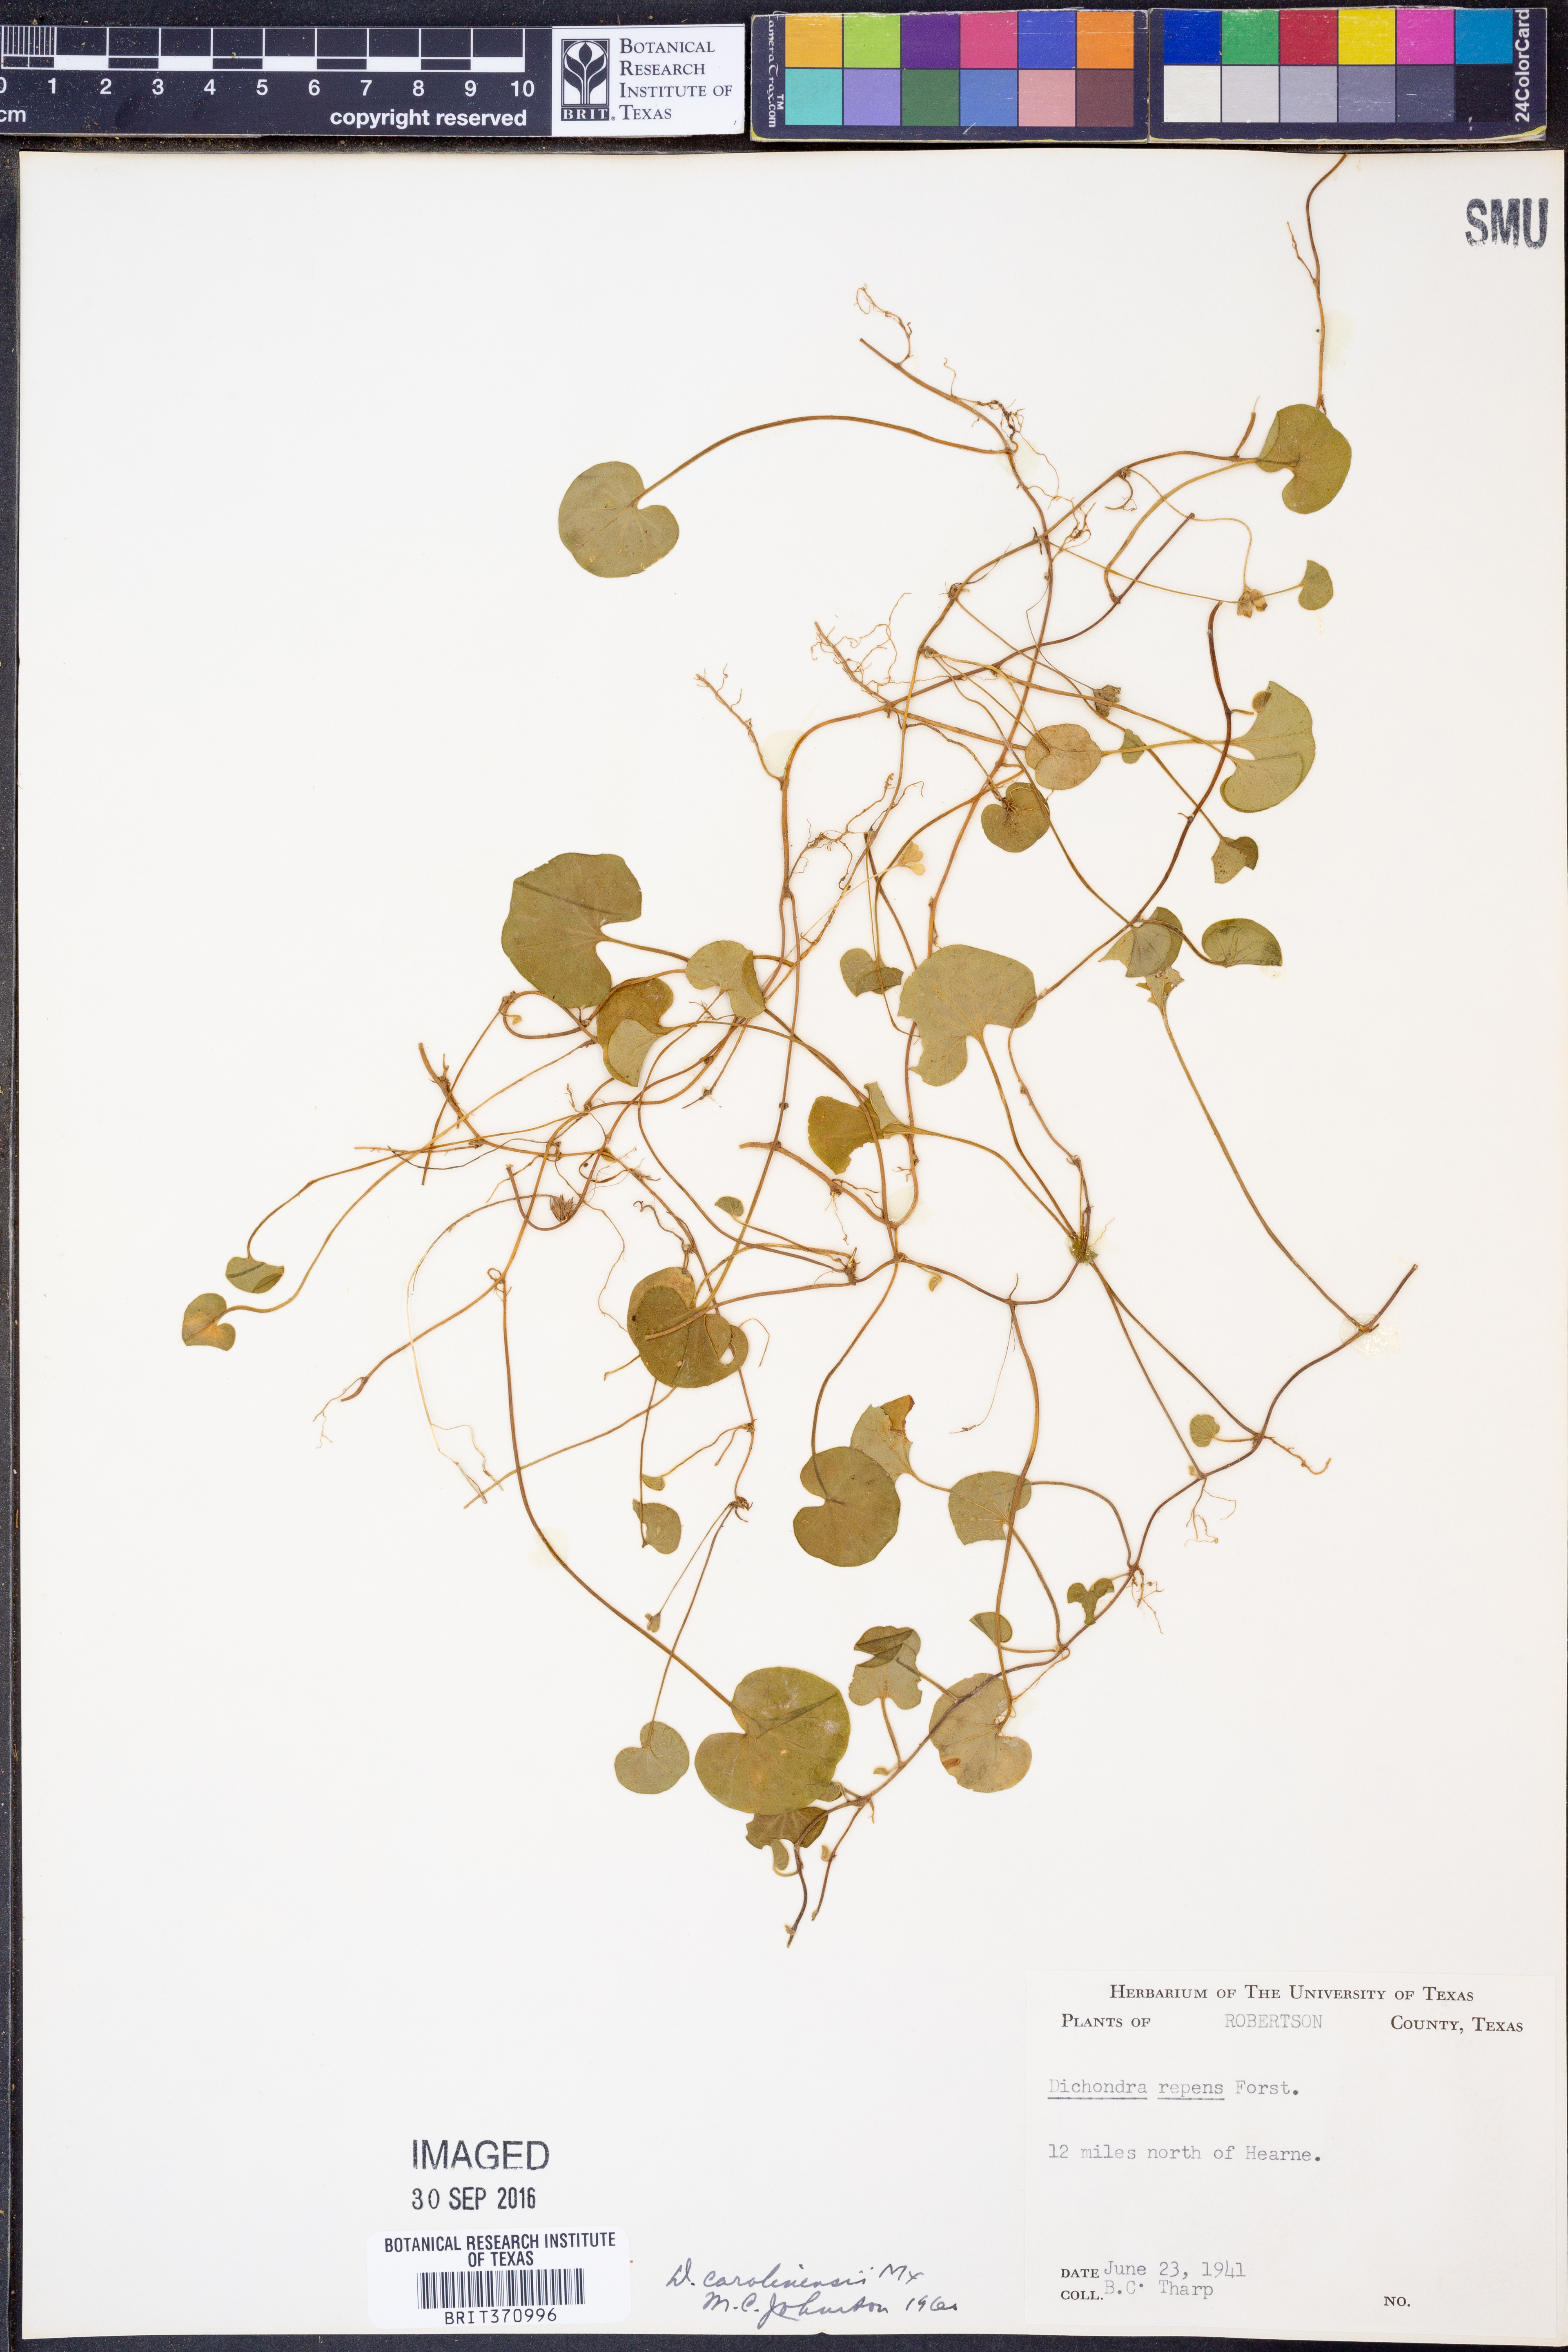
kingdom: Plantae
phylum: Tracheophyta
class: Magnoliopsida
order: Solanales
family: Convolvulaceae
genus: Dichondra
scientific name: Dichondra carolinensis
